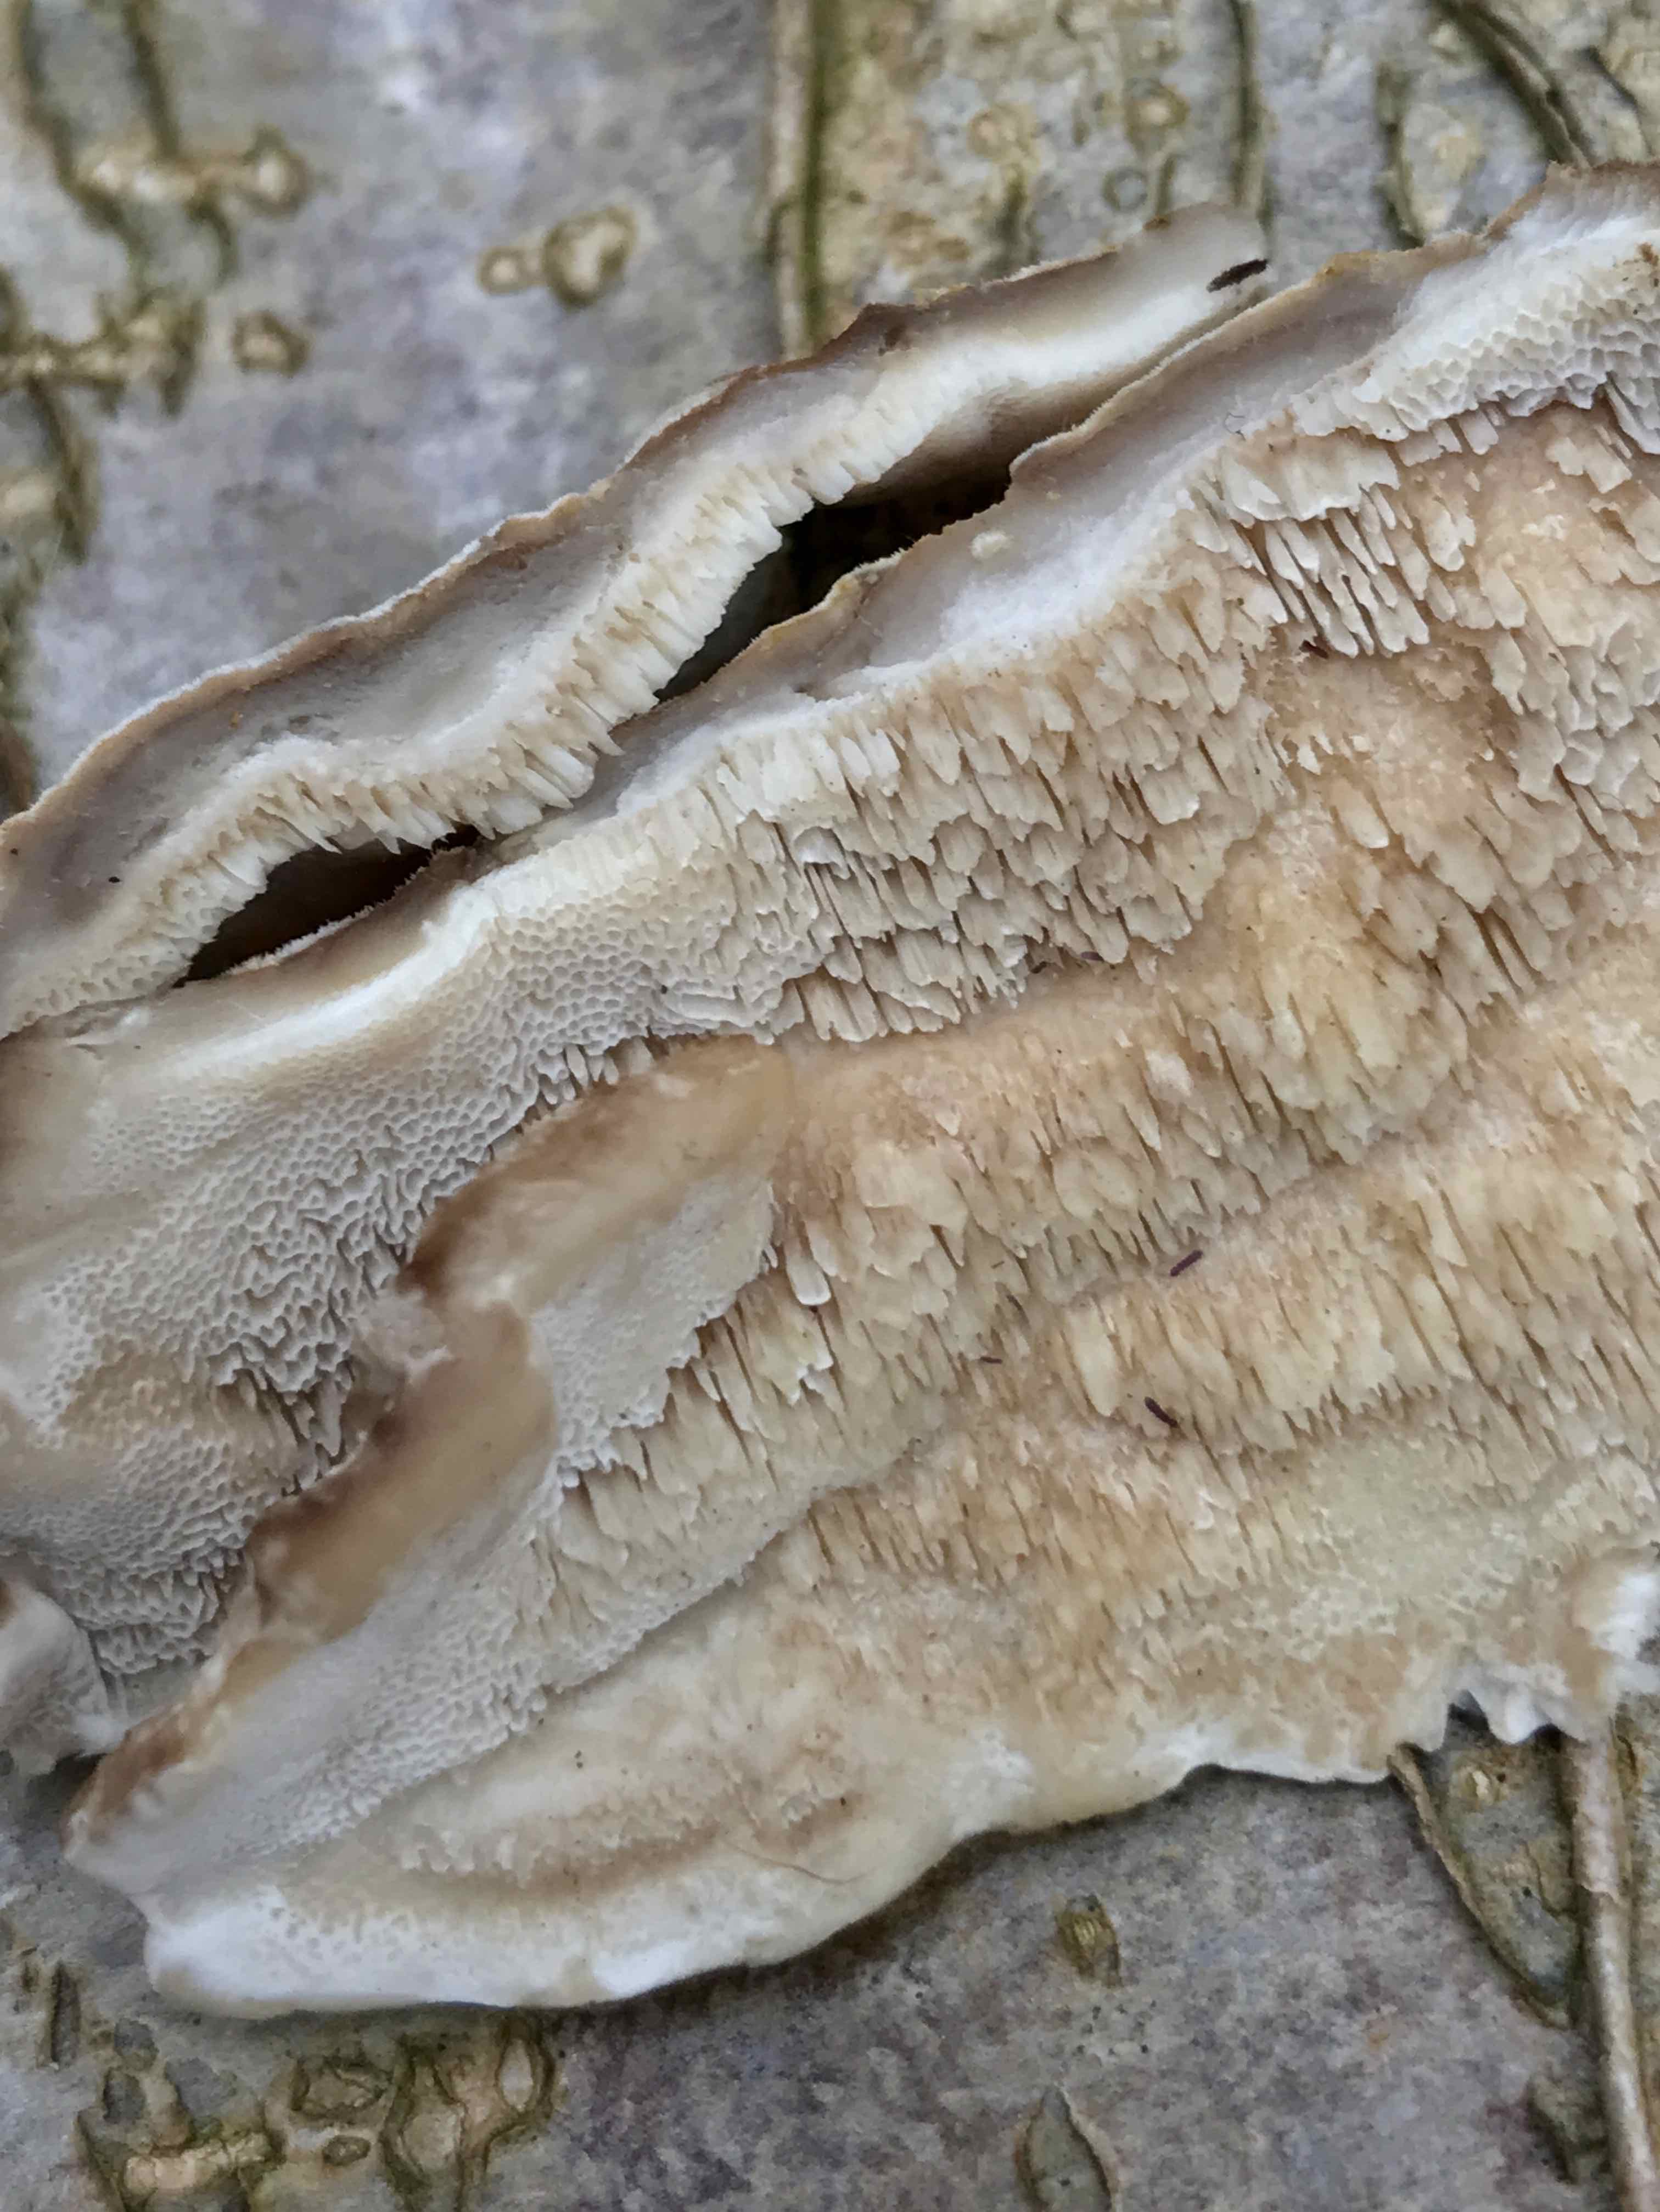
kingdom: Fungi
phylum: Basidiomycota
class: Agaricomycetes
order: Polyporales
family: Phanerochaetaceae
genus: Bjerkandera
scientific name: Bjerkandera fumosa
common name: grågul sodporesvamp
